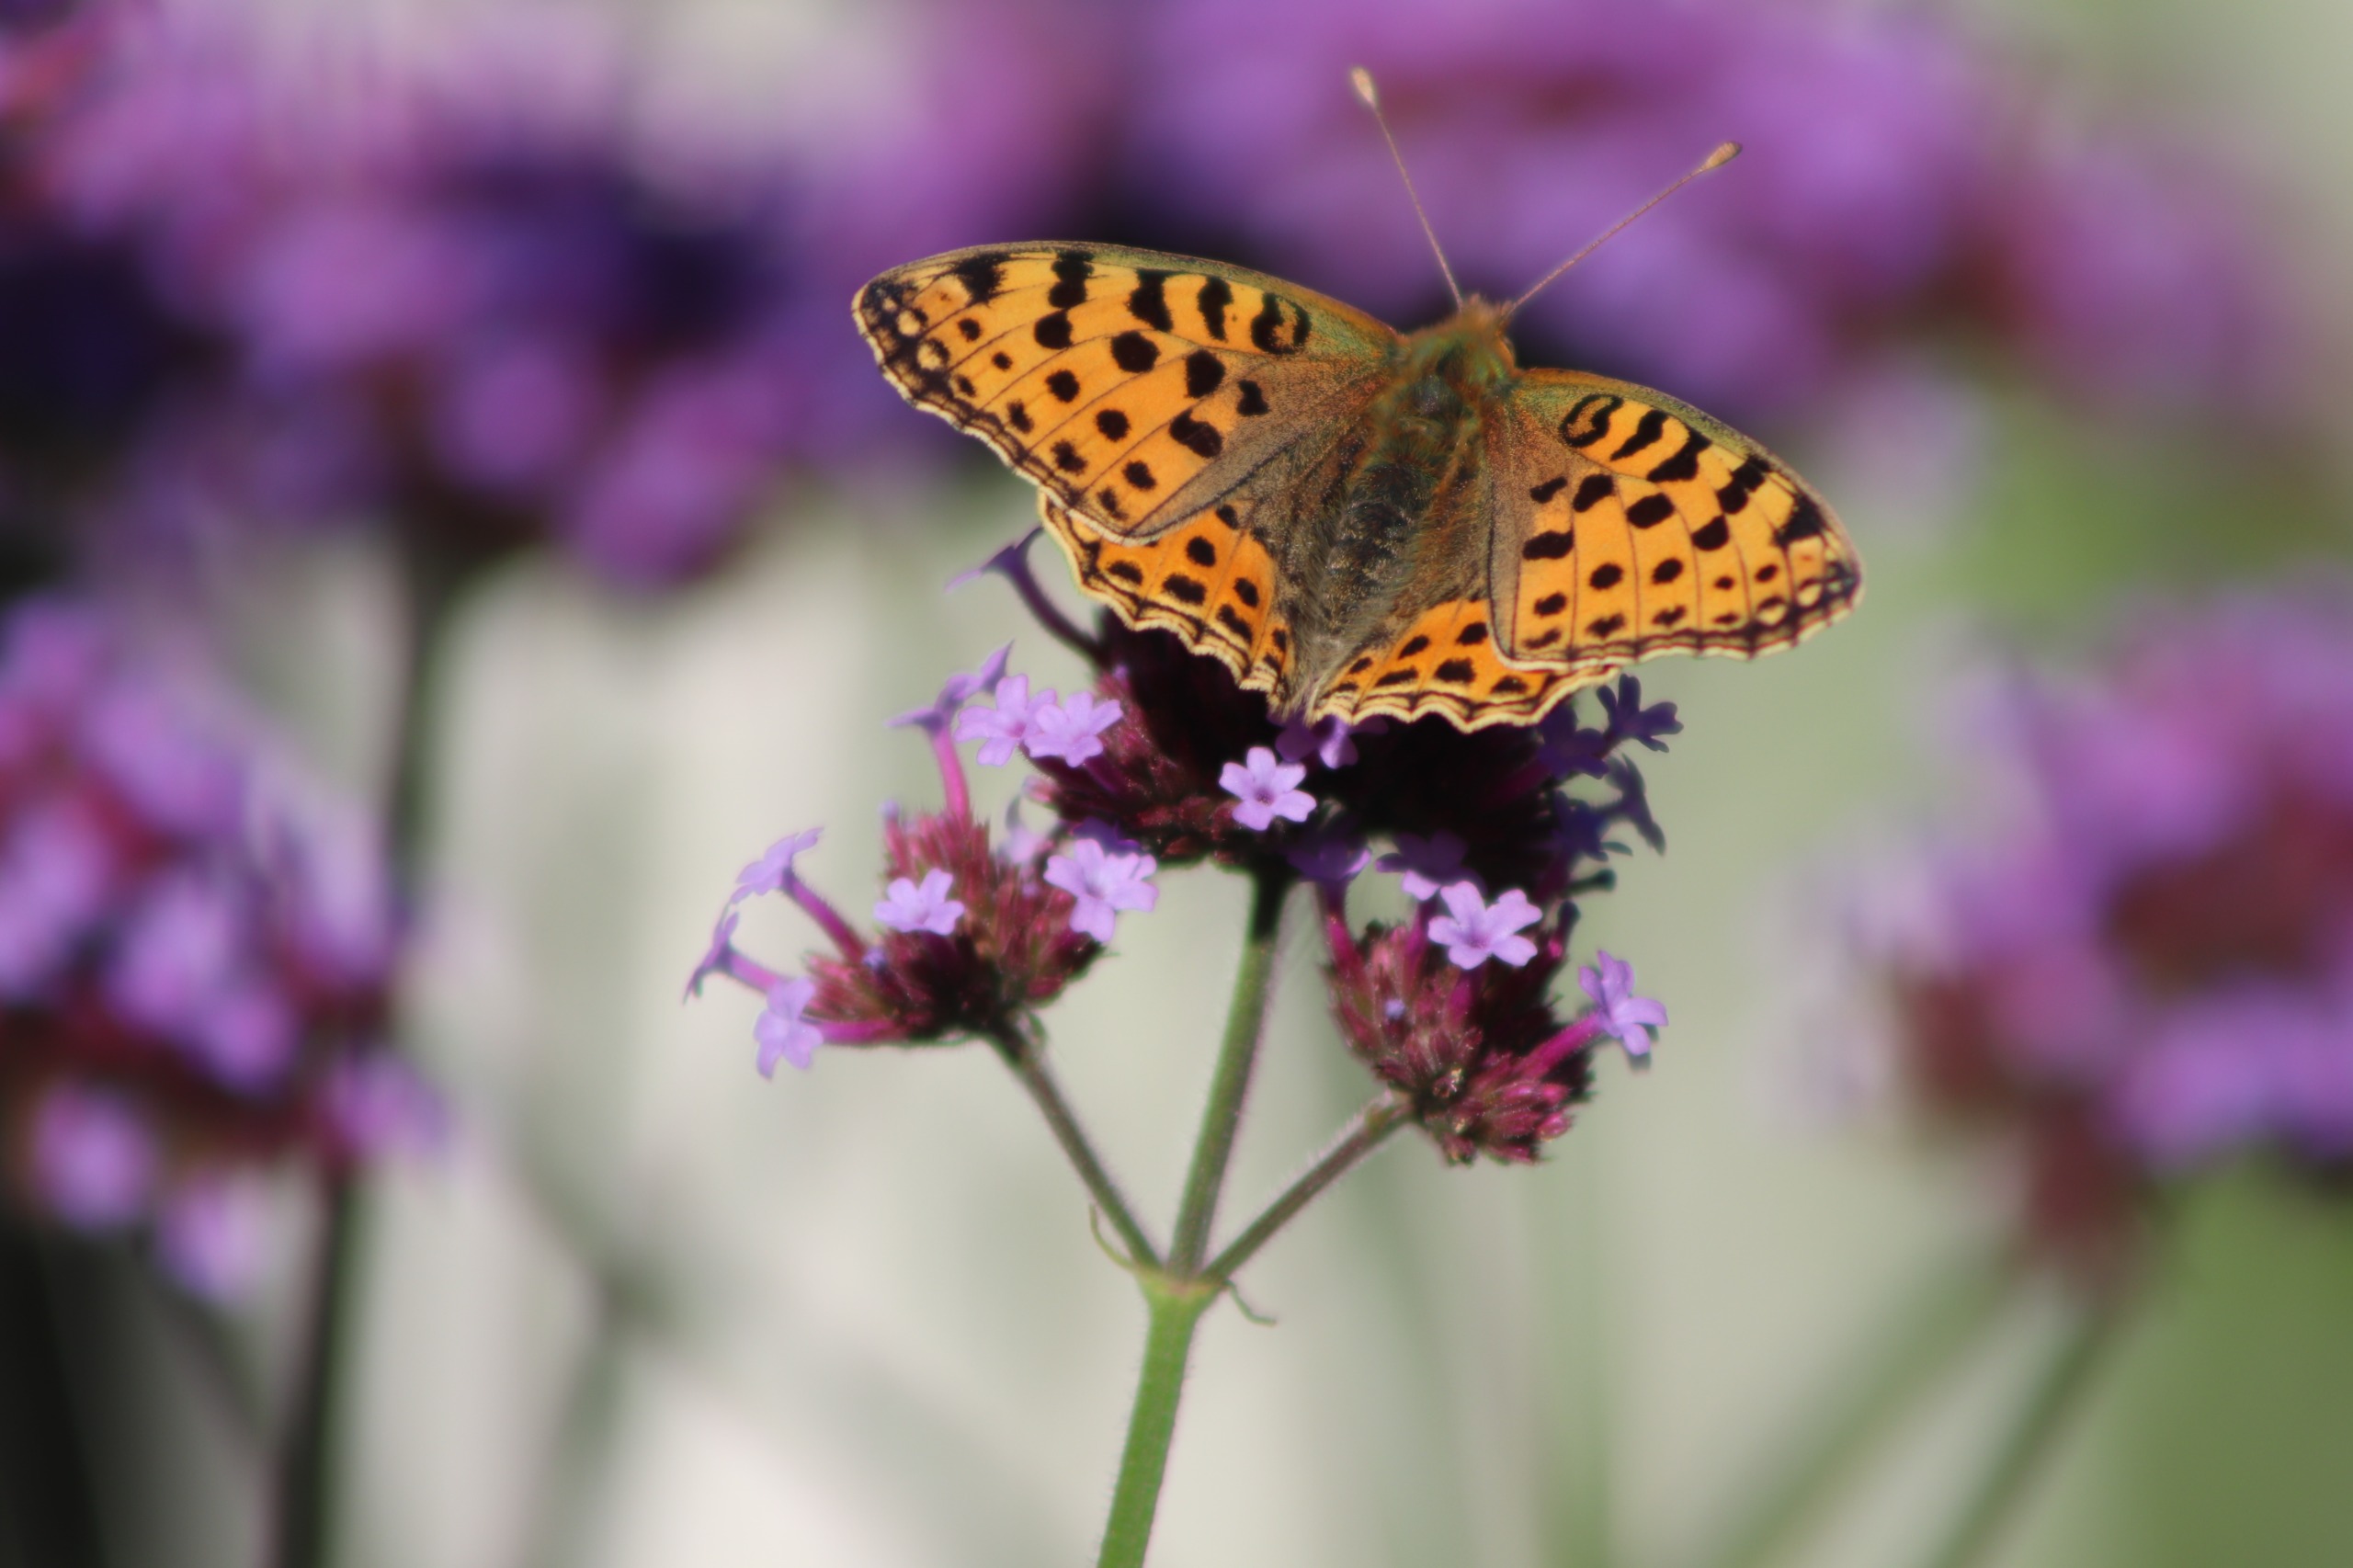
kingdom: Animalia
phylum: Arthropoda
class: Insecta
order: Lepidoptera
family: Nymphalidae
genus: Issoria
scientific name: Issoria lathonia
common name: Storplettet perlemorsommerfugl
